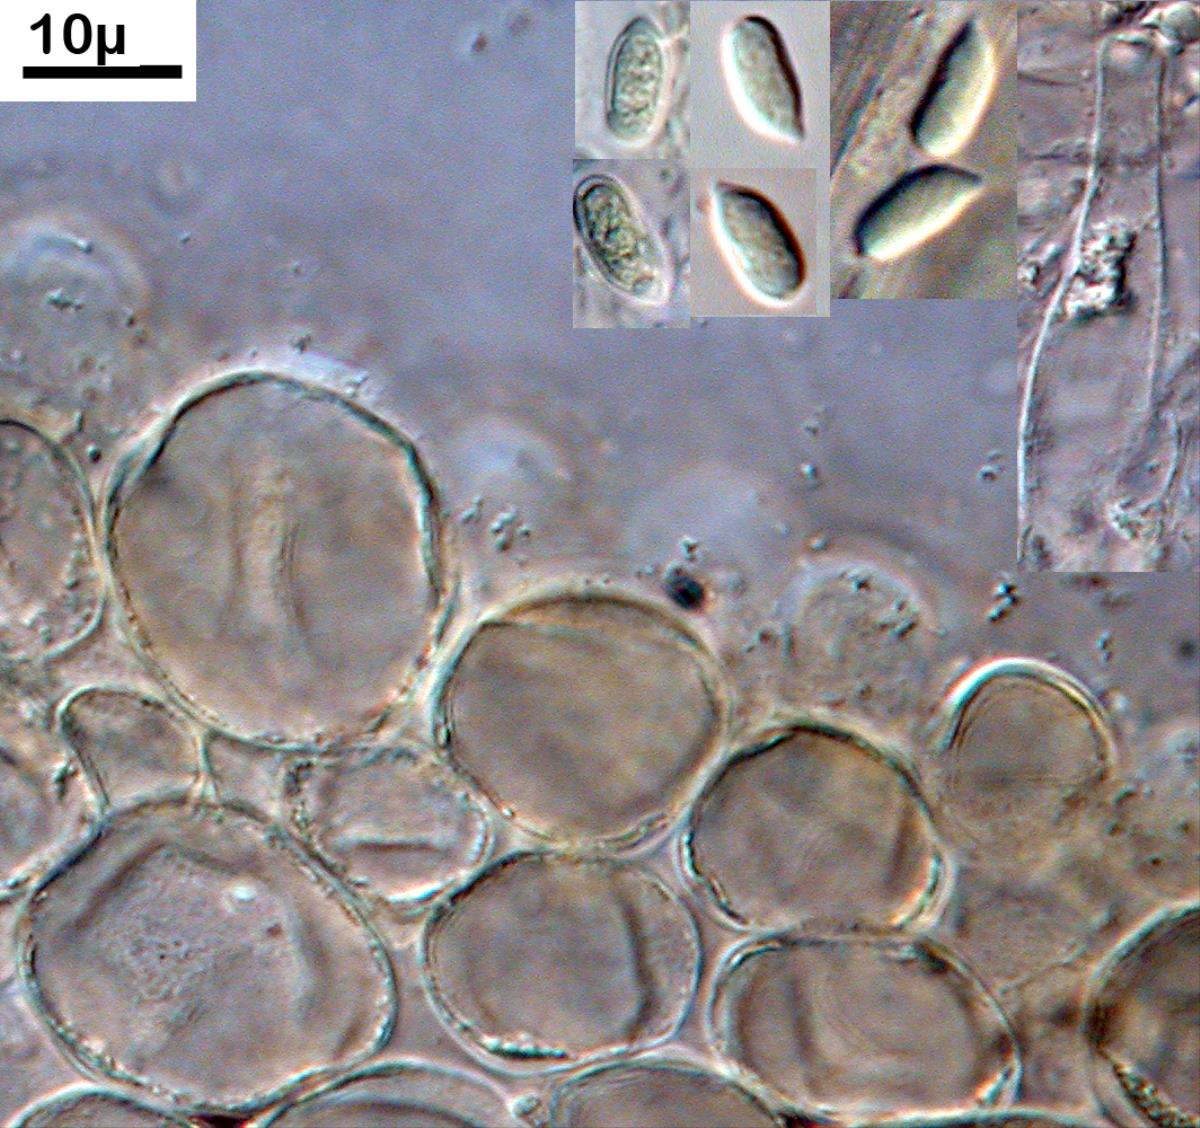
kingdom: Fungi
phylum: Basidiomycota
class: Agaricomycetes
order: Agaricales
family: Physalacriaceae
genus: Gloiocephala
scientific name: Gloiocephala xanthocephala
